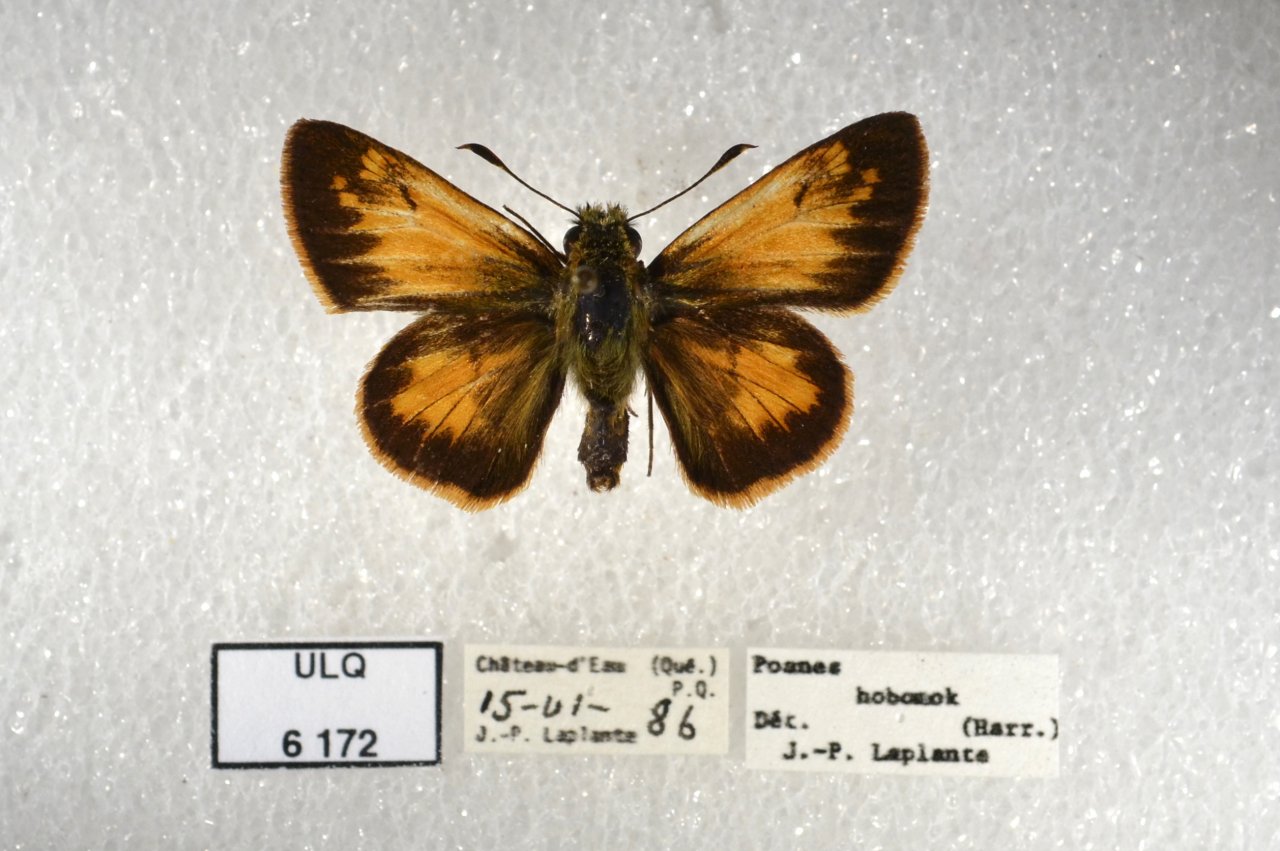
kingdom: Animalia
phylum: Arthropoda
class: Insecta
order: Lepidoptera
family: Hesperiidae
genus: Lon
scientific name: Lon hobomok
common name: Hobomok Skipper
